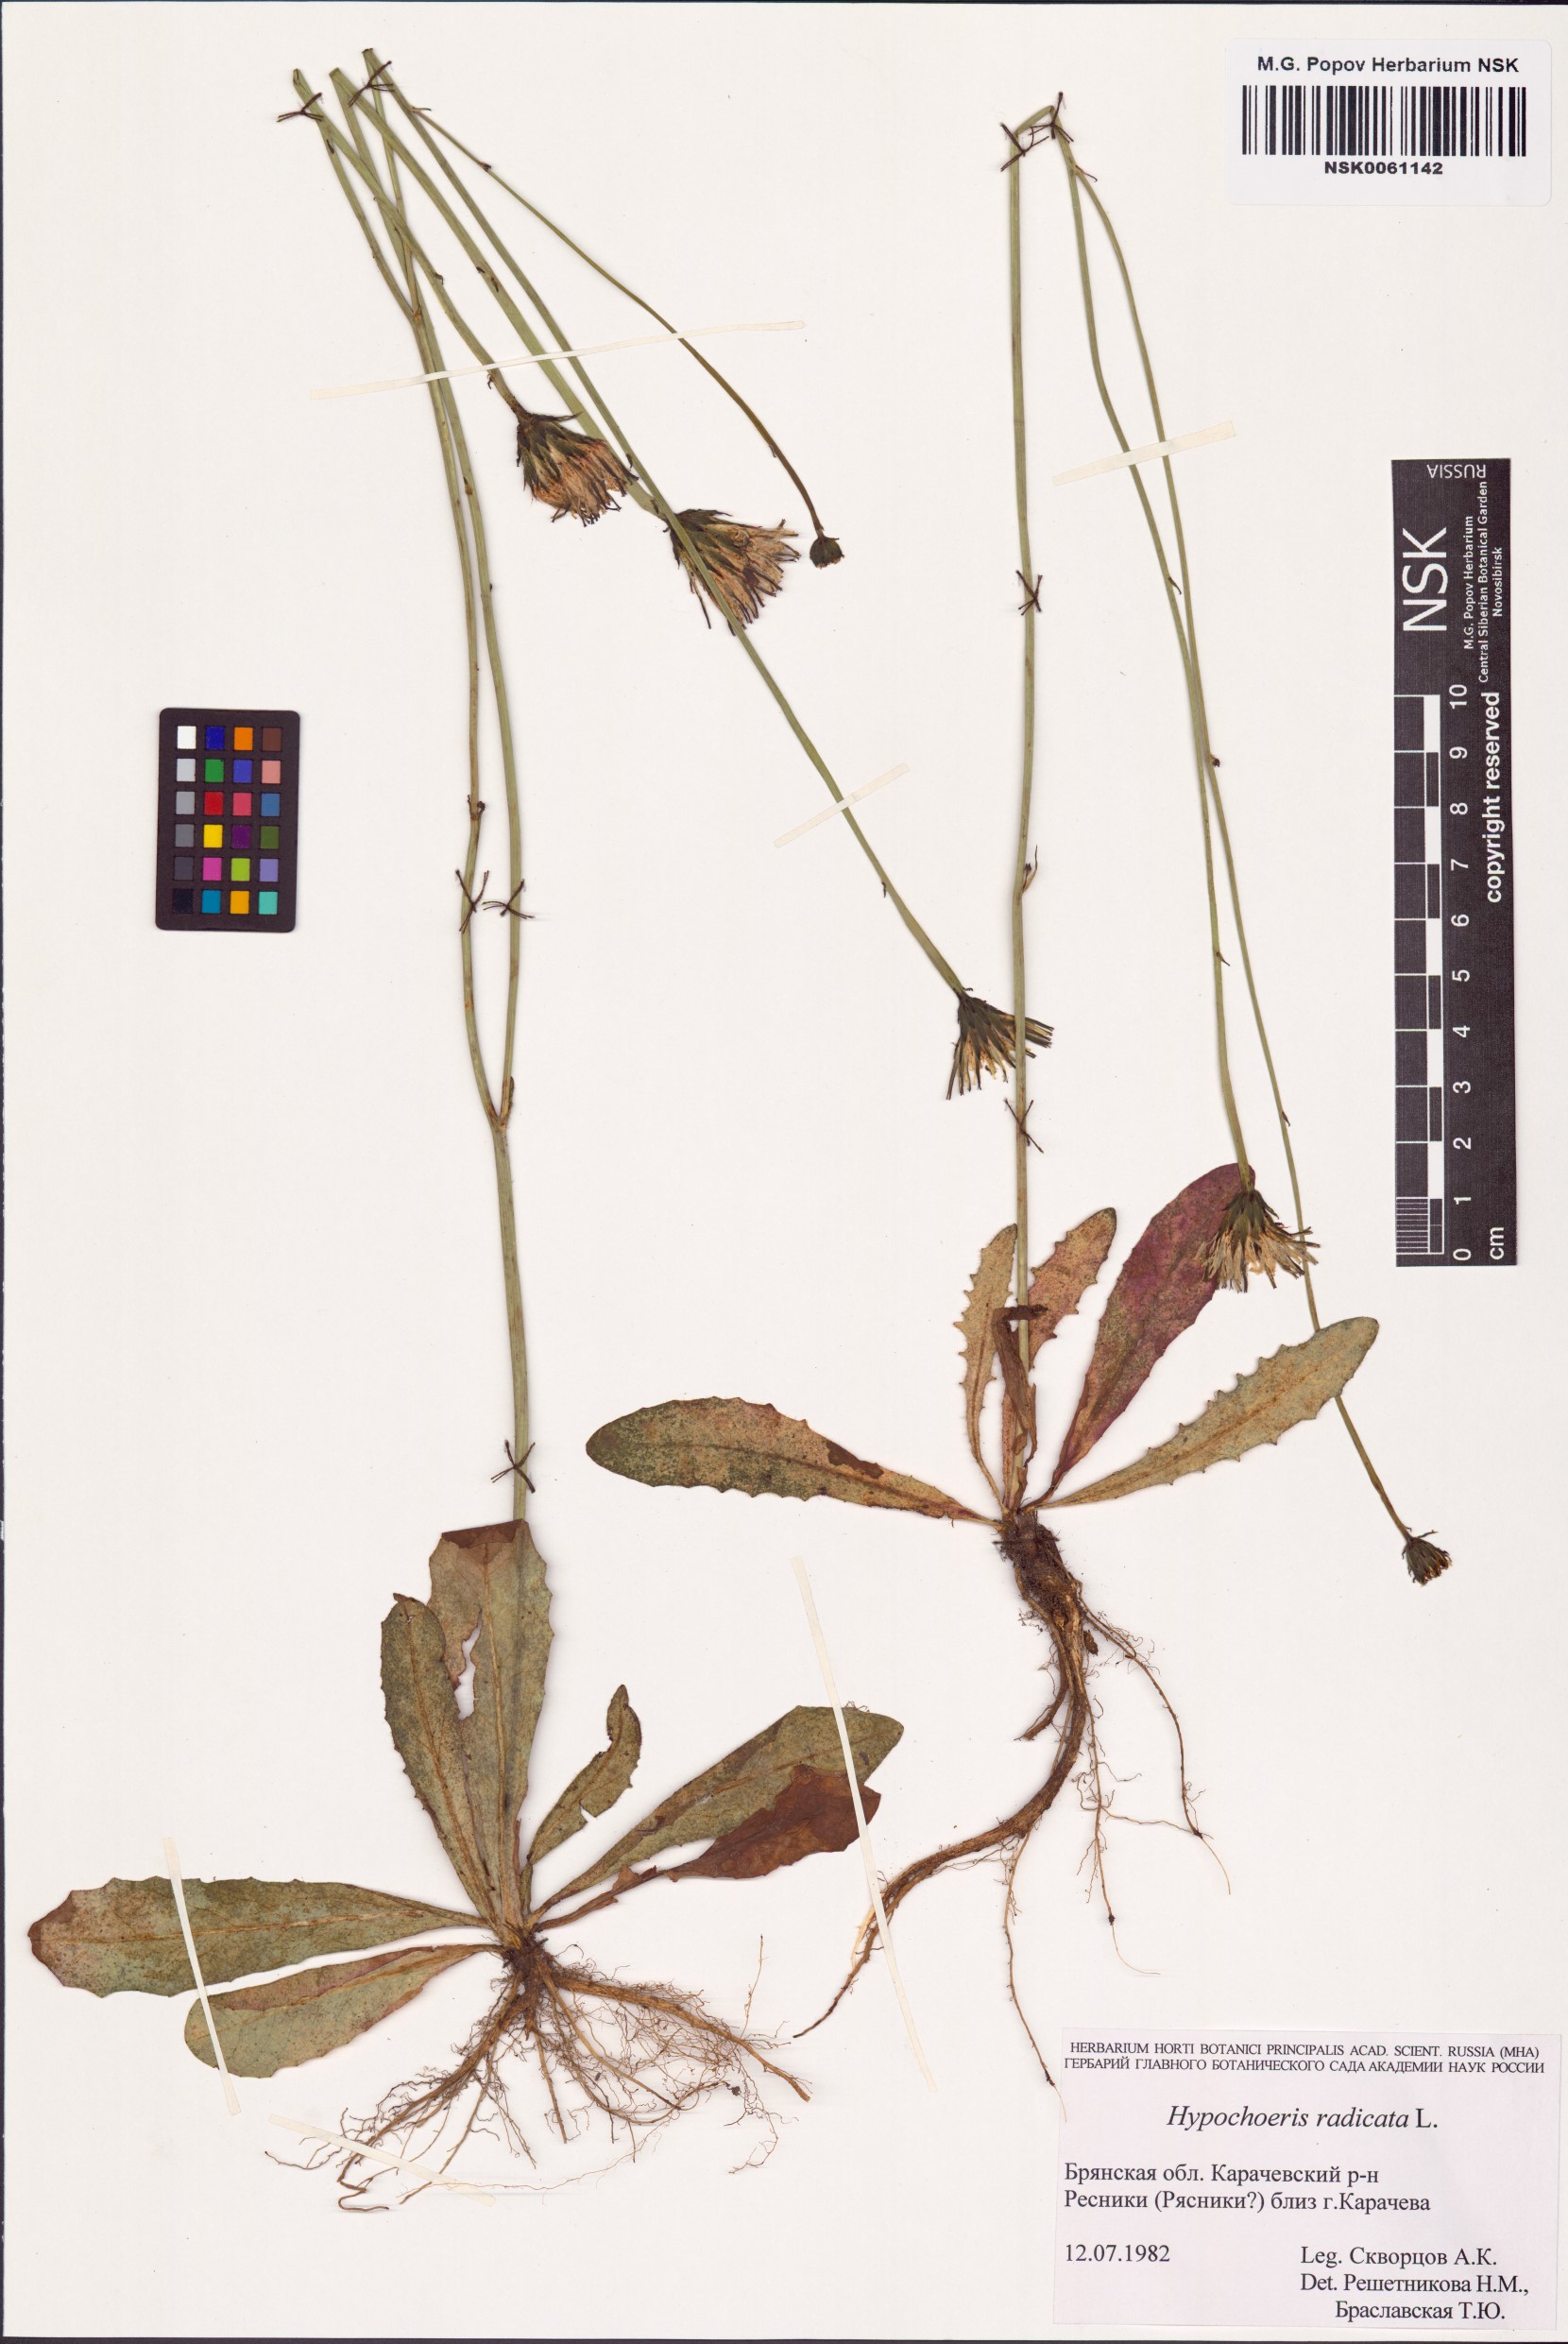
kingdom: Plantae
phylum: Tracheophyta
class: Magnoliopsida
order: Asterales
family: Asteraceae
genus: Hypochaeris
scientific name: Hypochaeris radicata
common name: Flatweed
